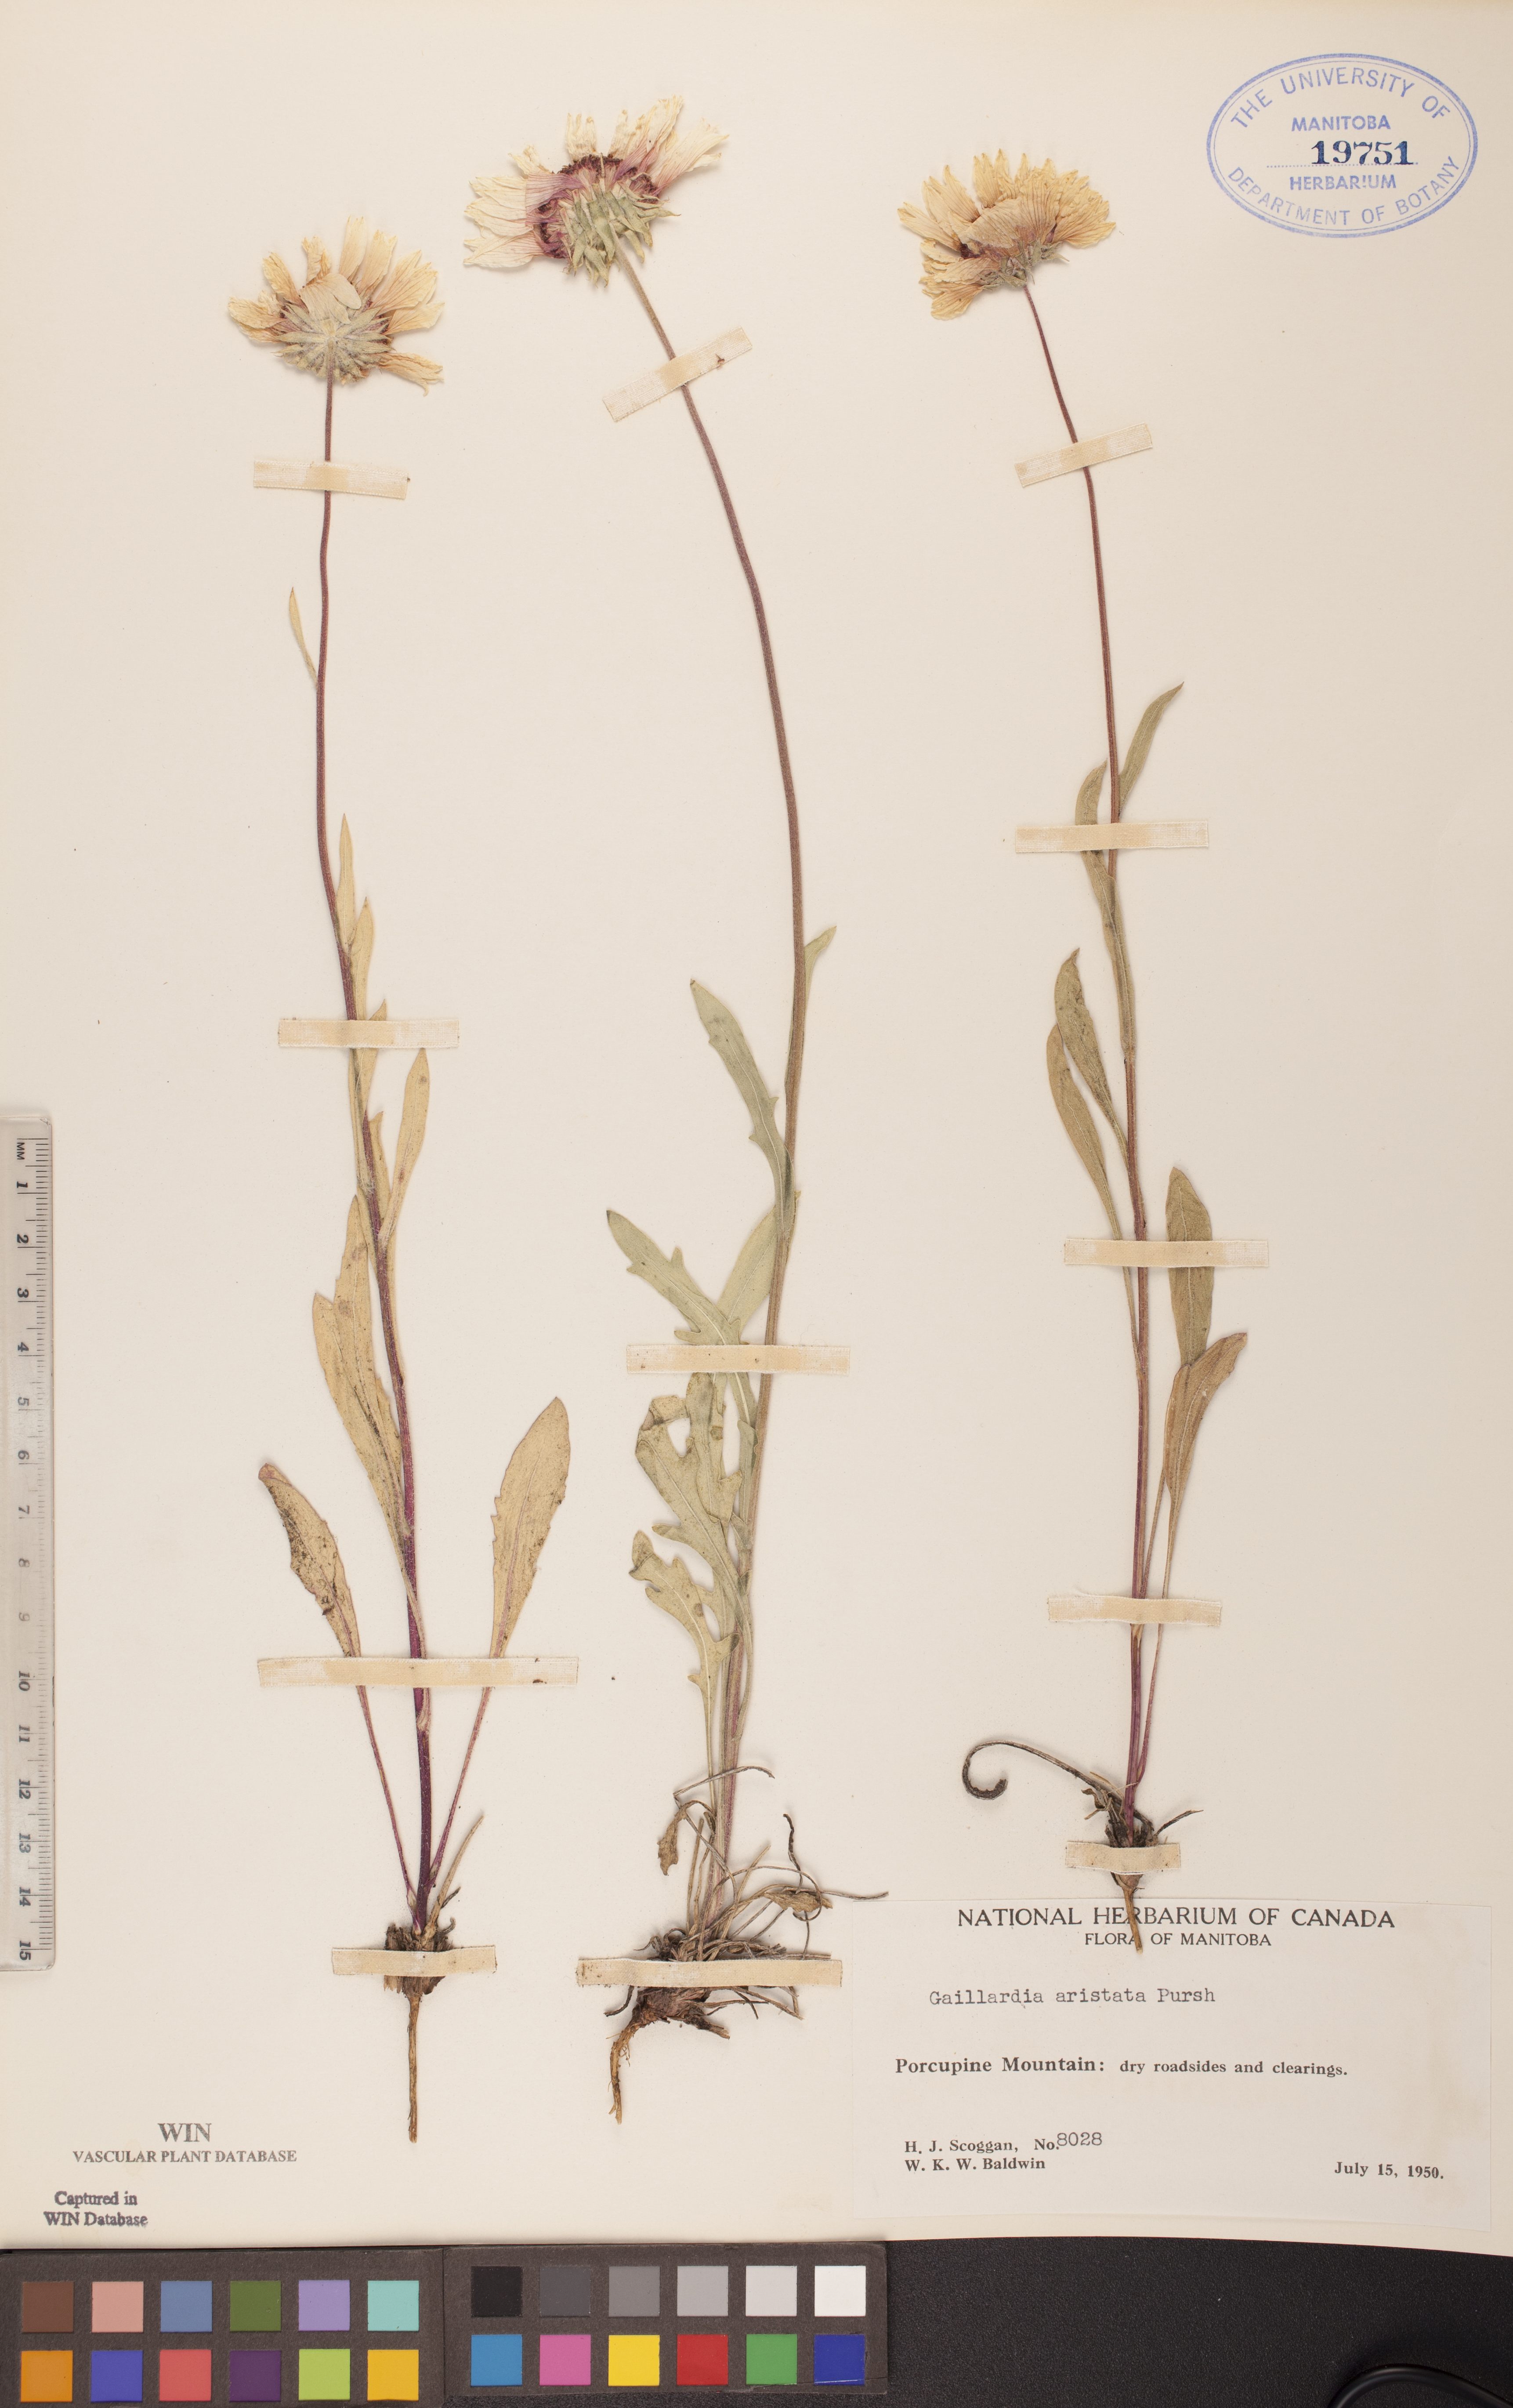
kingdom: Plantae
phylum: Tracheophyta
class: Magnoliopsida
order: Asterales
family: Asteraceae
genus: Gaillardia
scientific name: Gaillardia aristata
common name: Blanket-flower
